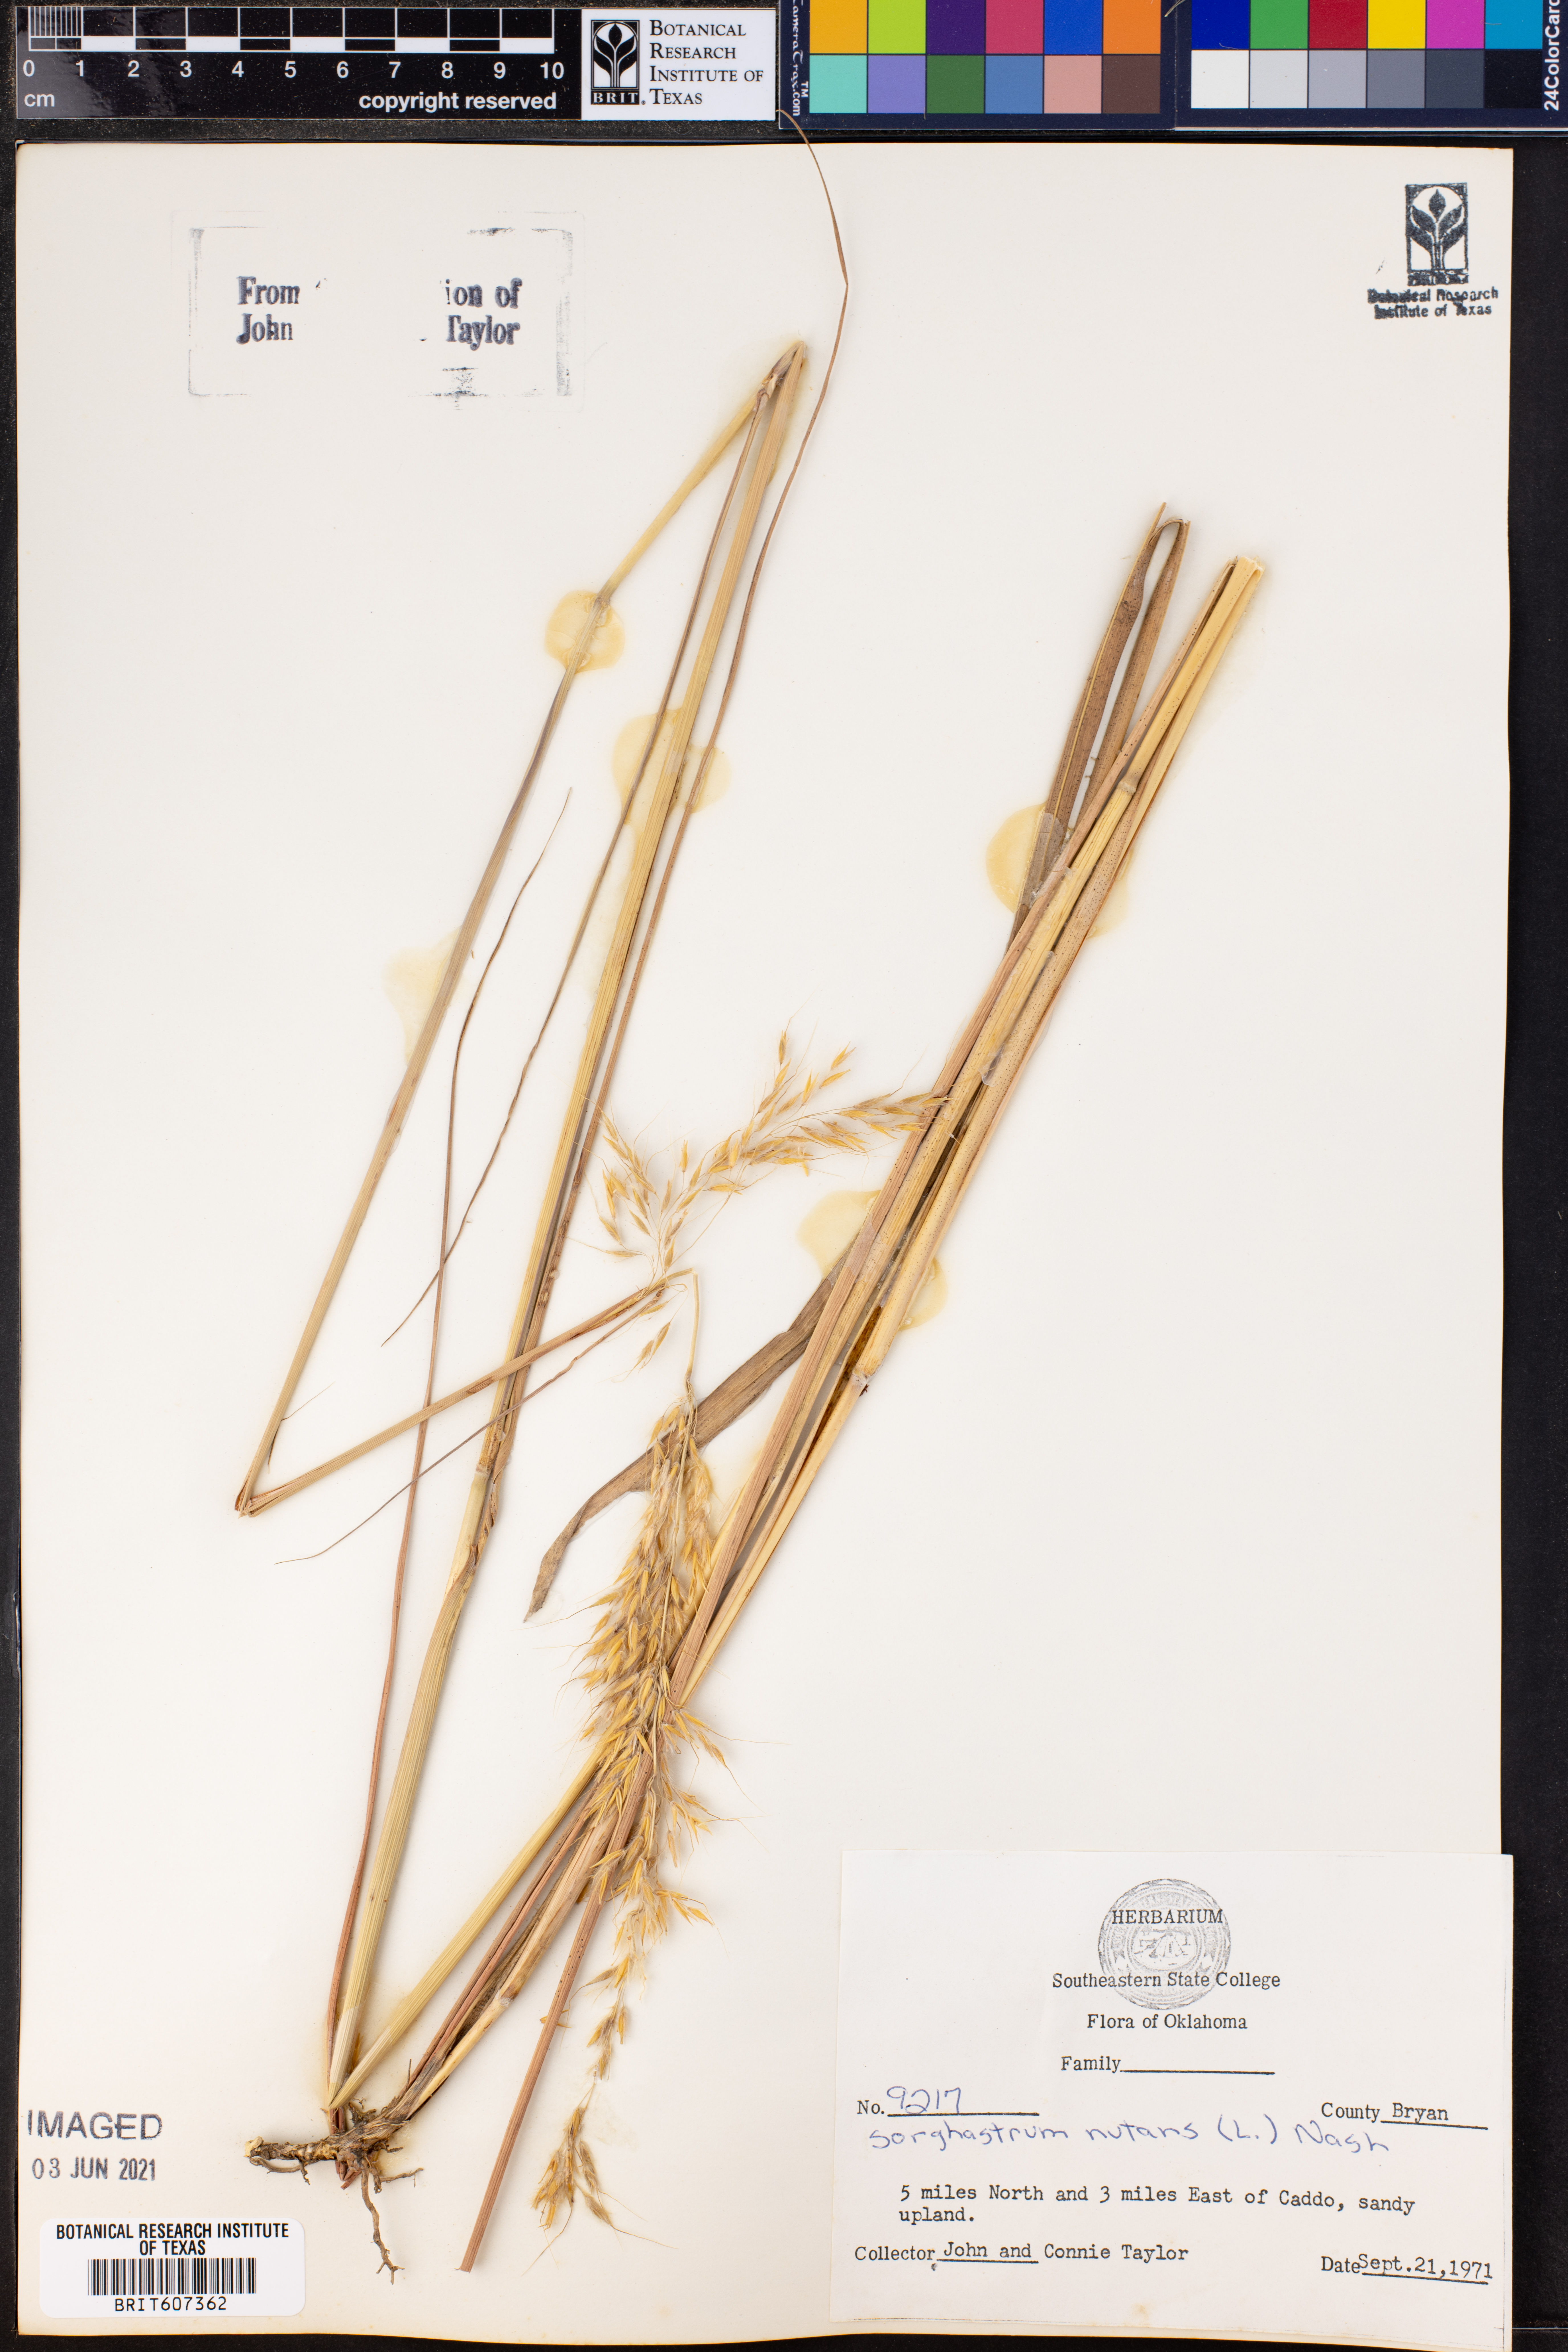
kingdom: Plantae
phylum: Tracheophyta
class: Liliopsida
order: Poales
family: Poaceae
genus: Sorghastrum
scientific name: Sorghastrum nutans
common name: Indian grass
